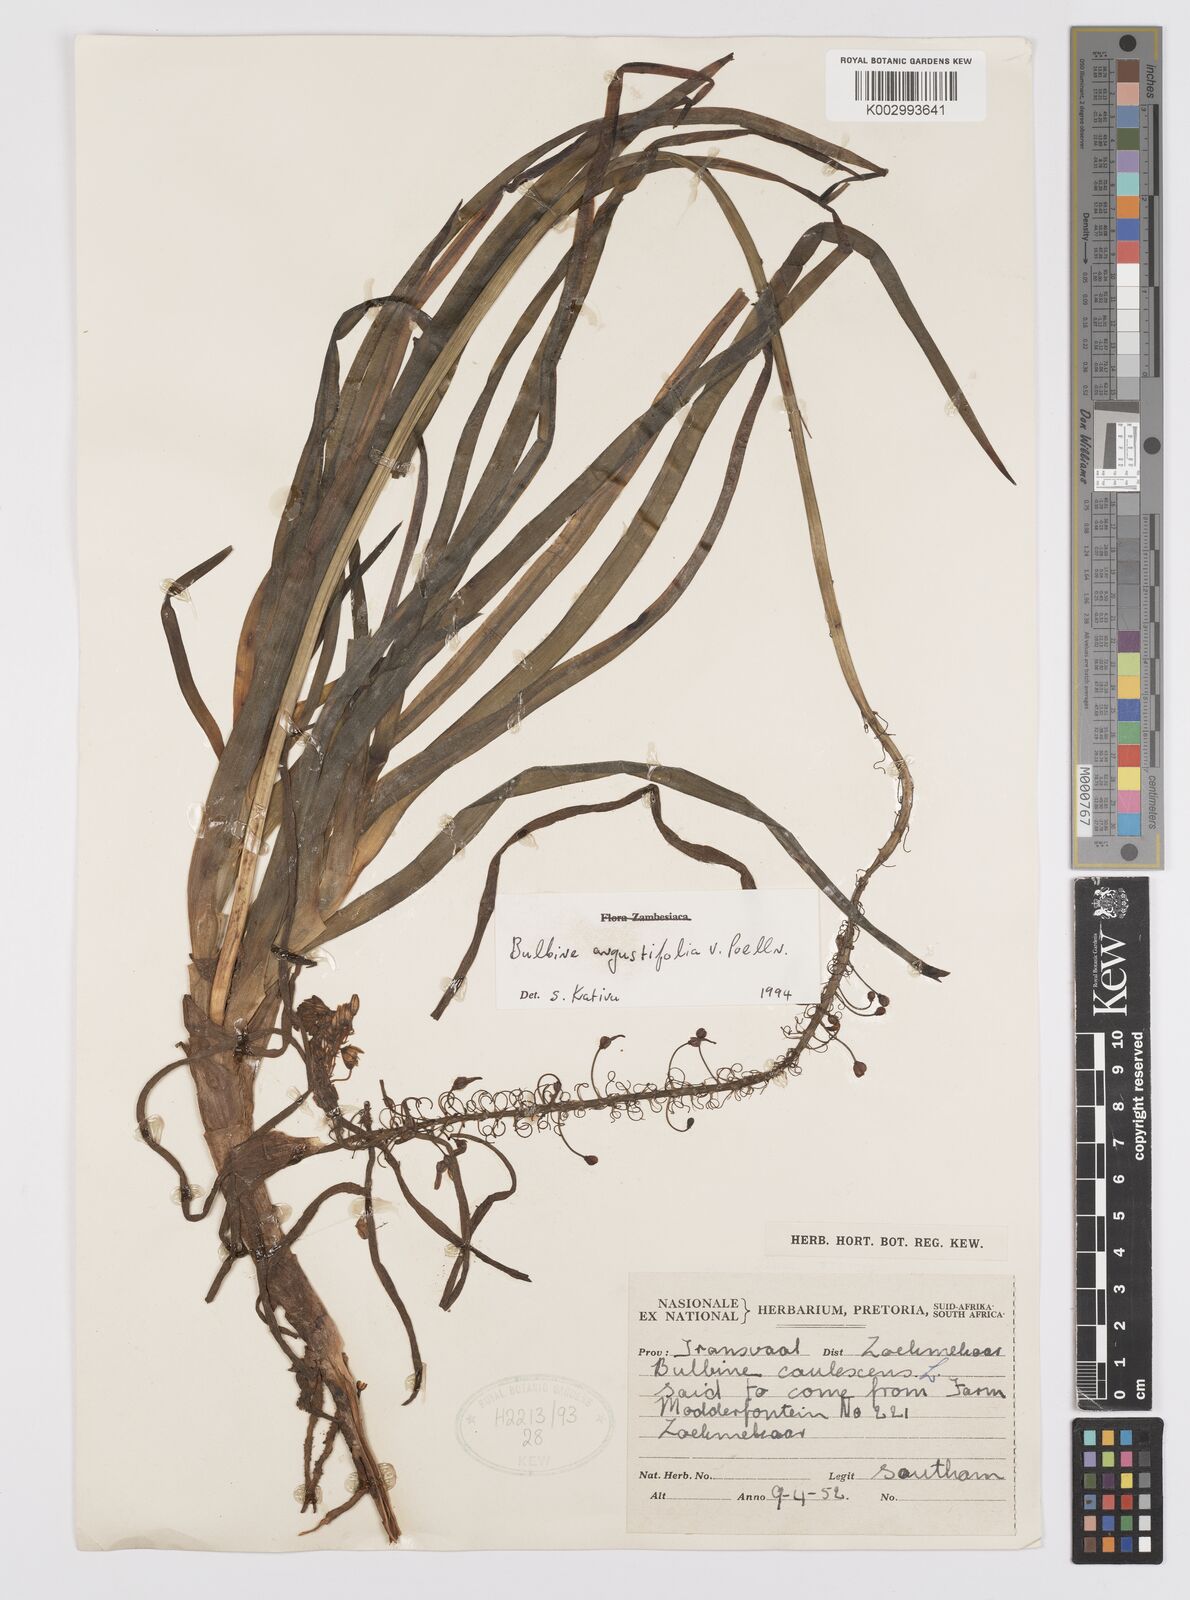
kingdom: Plantae
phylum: Tracheophyta
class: Liliopsida
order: Asparagales
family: Asphodelaceae
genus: Bulbine
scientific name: Bulbine angustifolia
